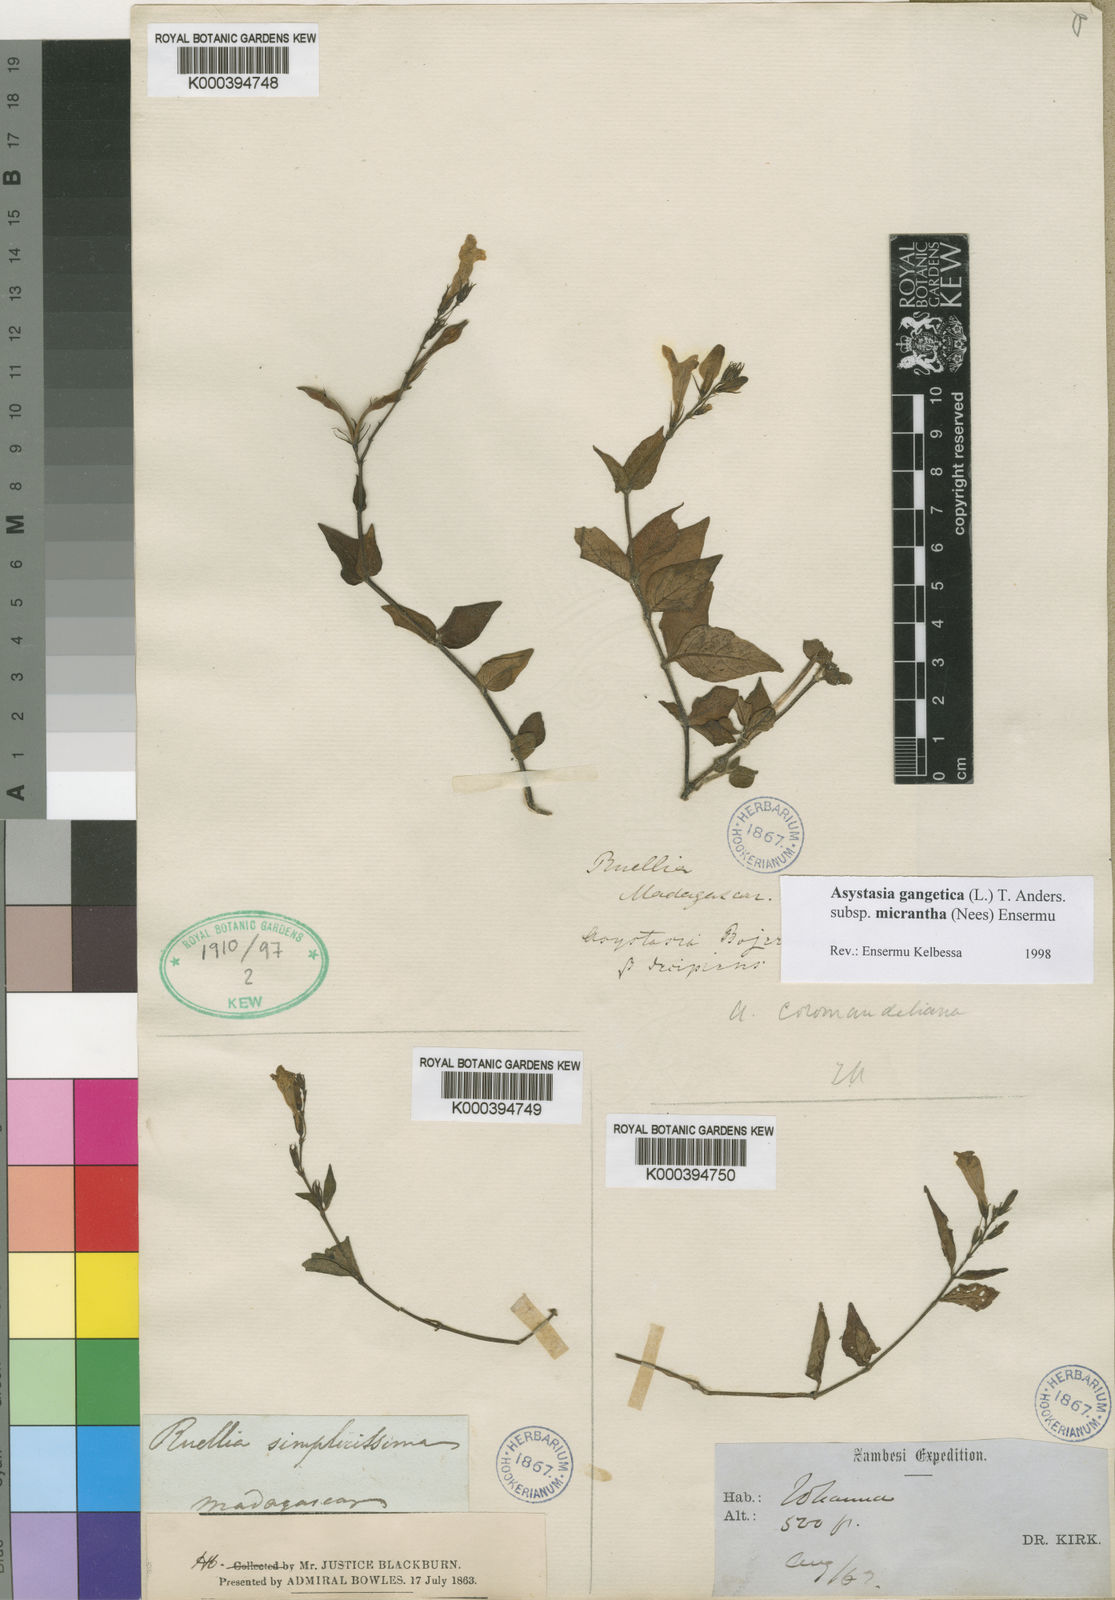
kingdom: Plantae
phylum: Tracheophyta
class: Magnoliopsida
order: Lamiales
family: Acanthaceae
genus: Asystasia
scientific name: Asystasia gangetica
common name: Chinese violet
